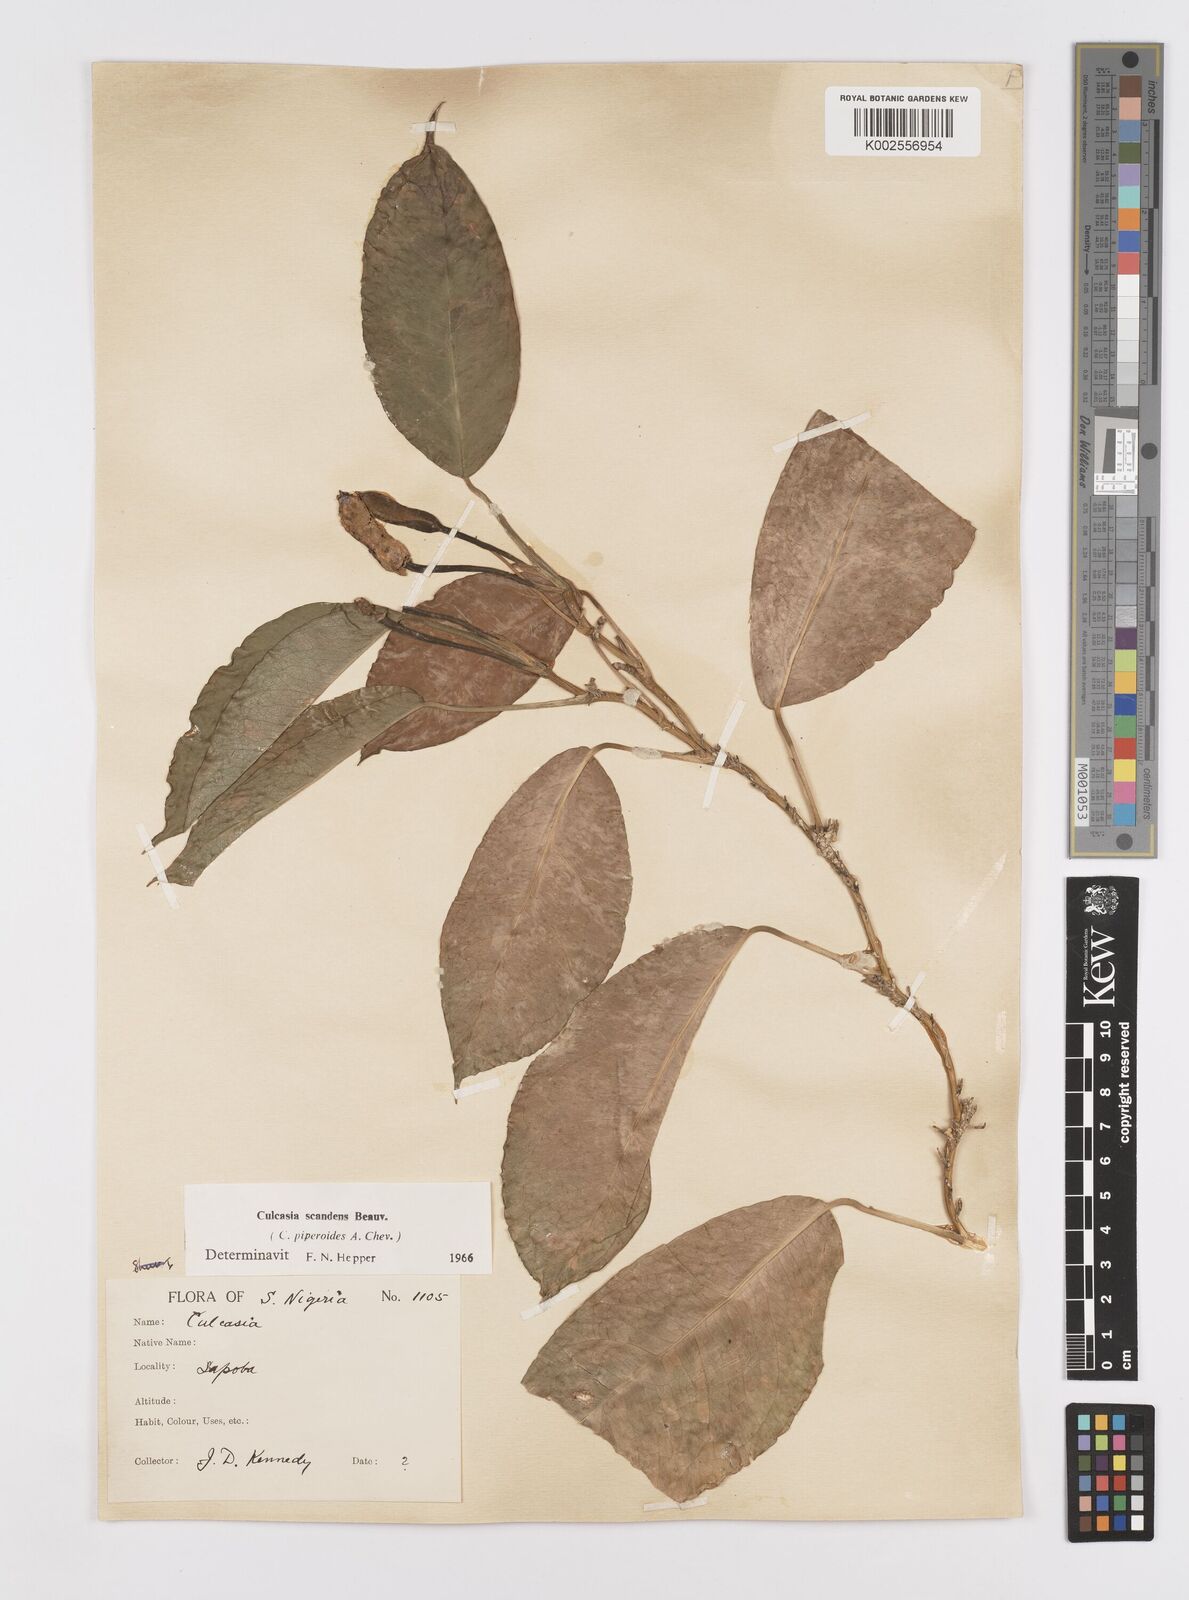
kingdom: Plantae
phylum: Tracheophyta
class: Liliopsida
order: Alismatales
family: Araceae
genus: Culcasia
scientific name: Culcasia scandens
